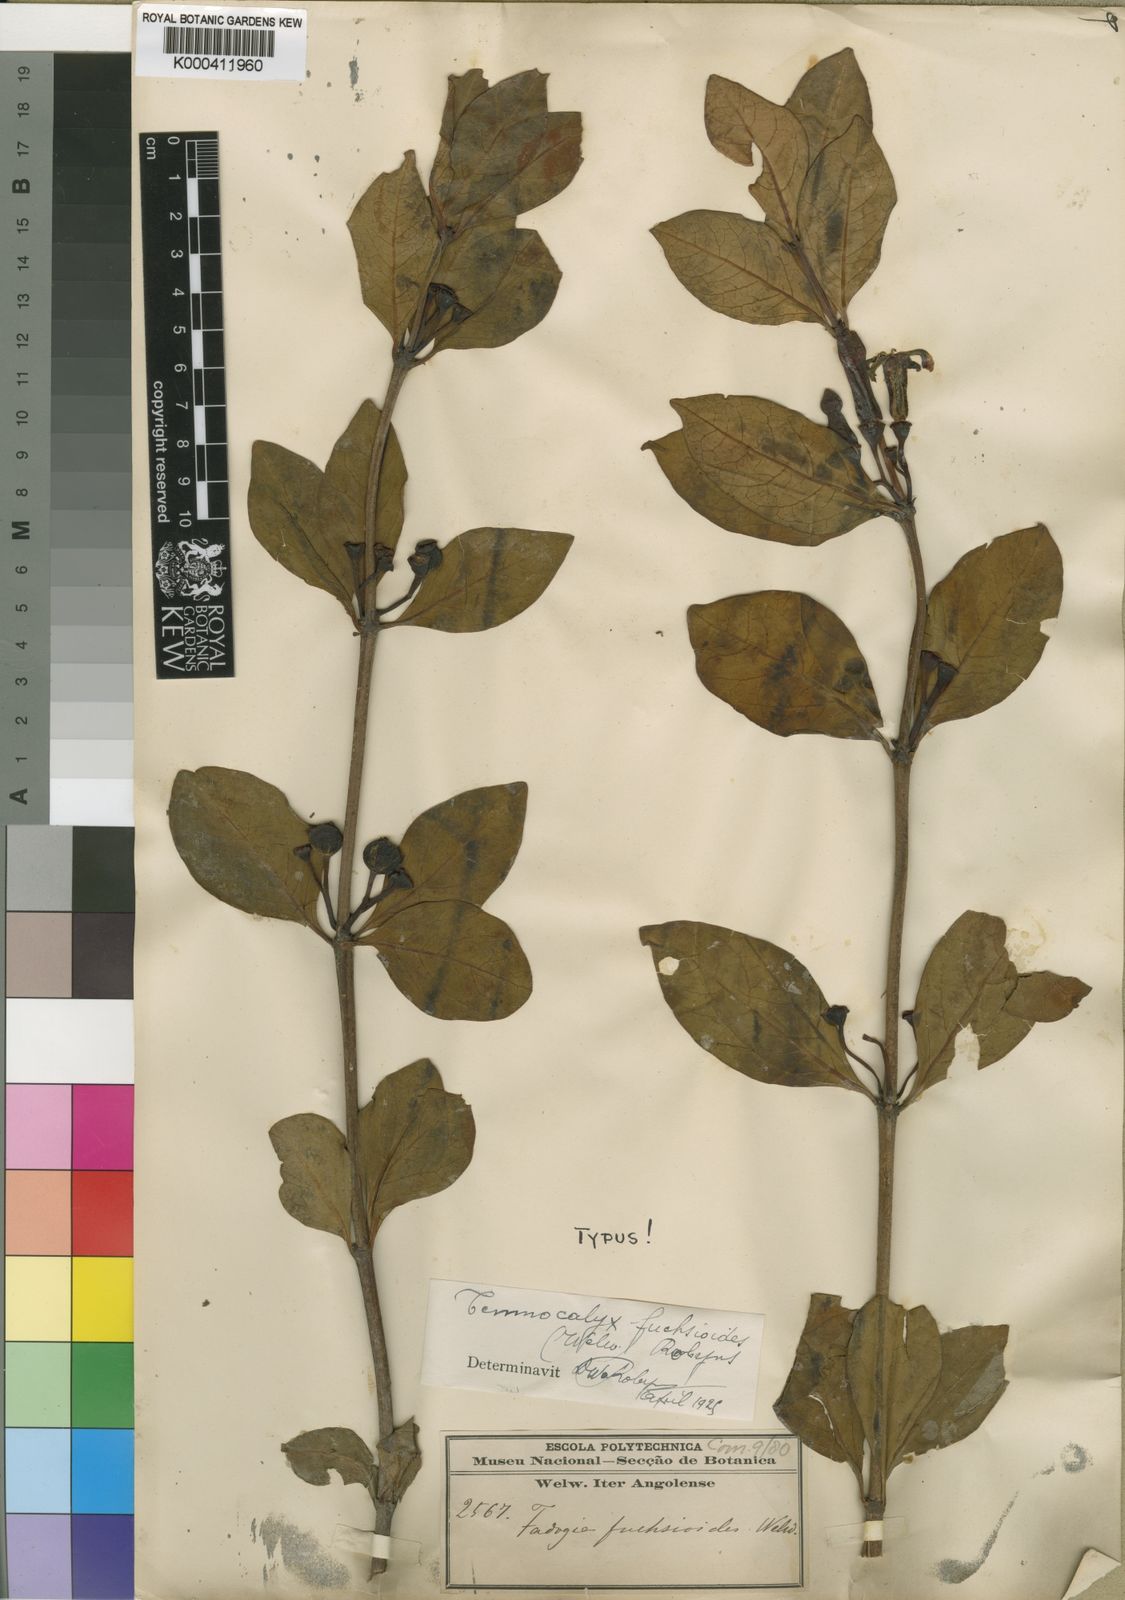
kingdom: Plantae
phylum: Tracheophyta
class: Magnoliopsida
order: Gentianales
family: Rubiaceae
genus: Fadogia
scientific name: Fadogia fuchsioides
